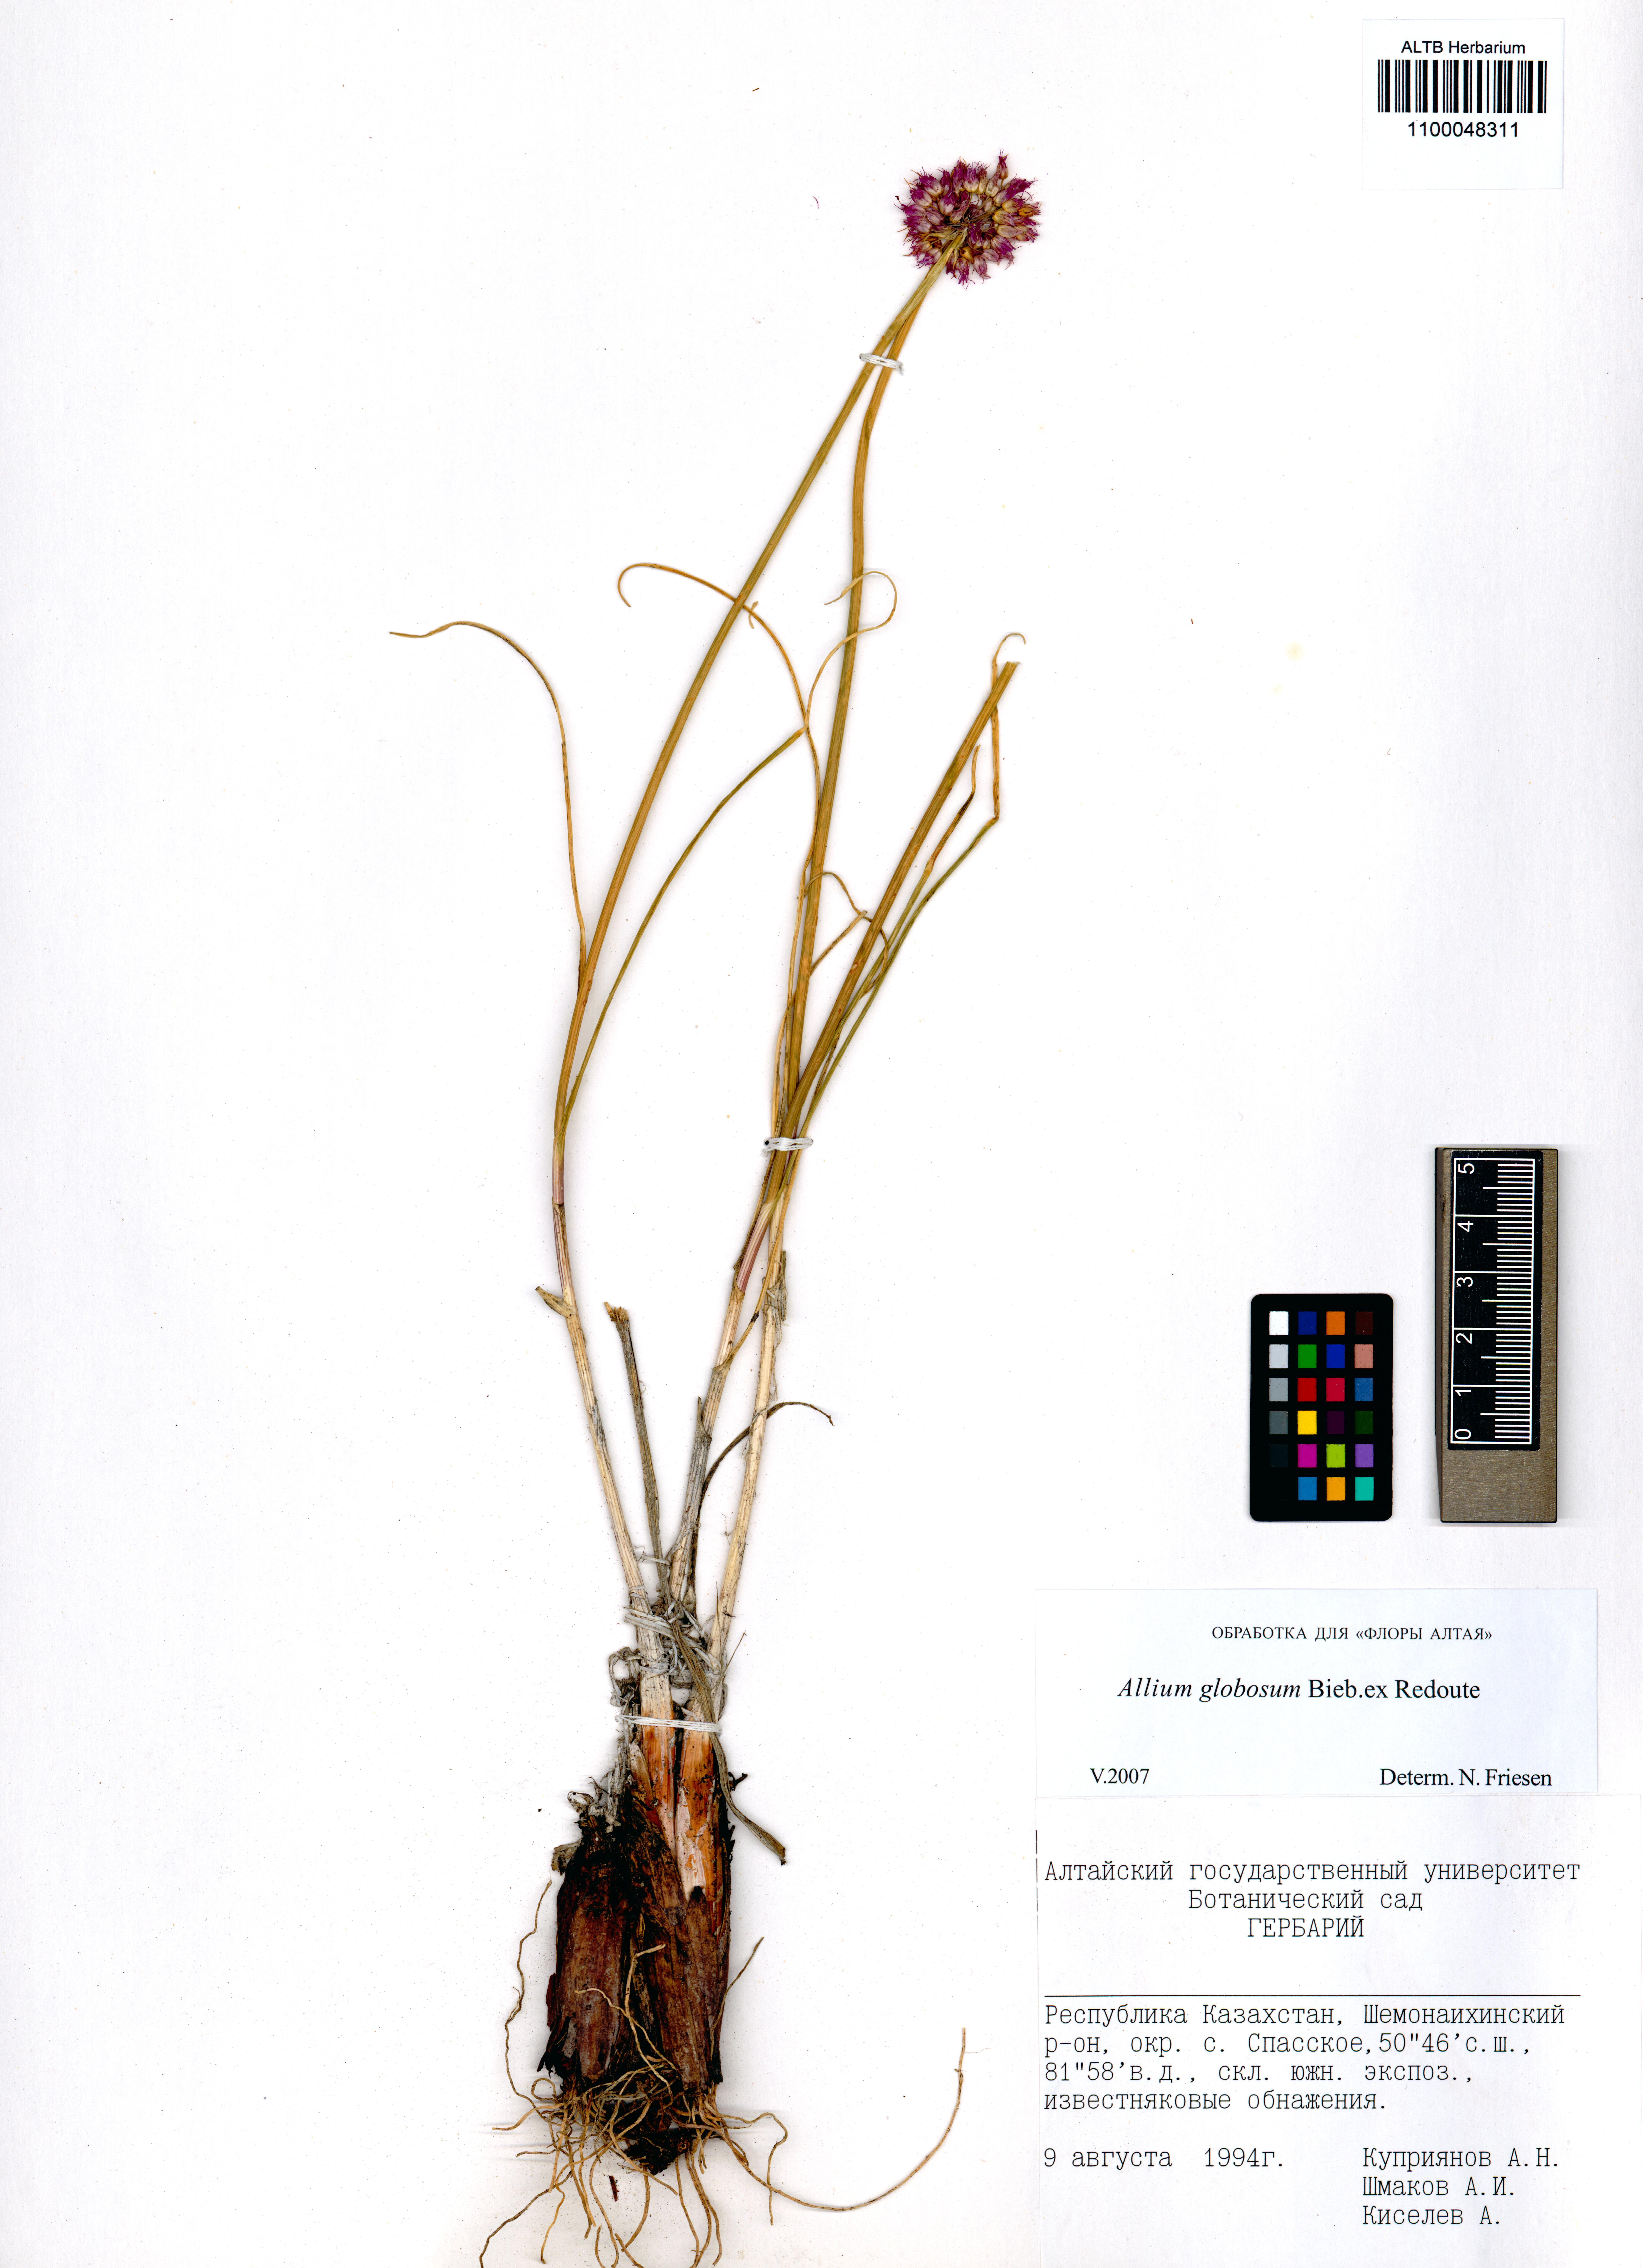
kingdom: Plantae
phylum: Tracheophyta
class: Liliopsida
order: Asparagales
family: Amaryllidaceae
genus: Allium
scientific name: Allium saxatile
